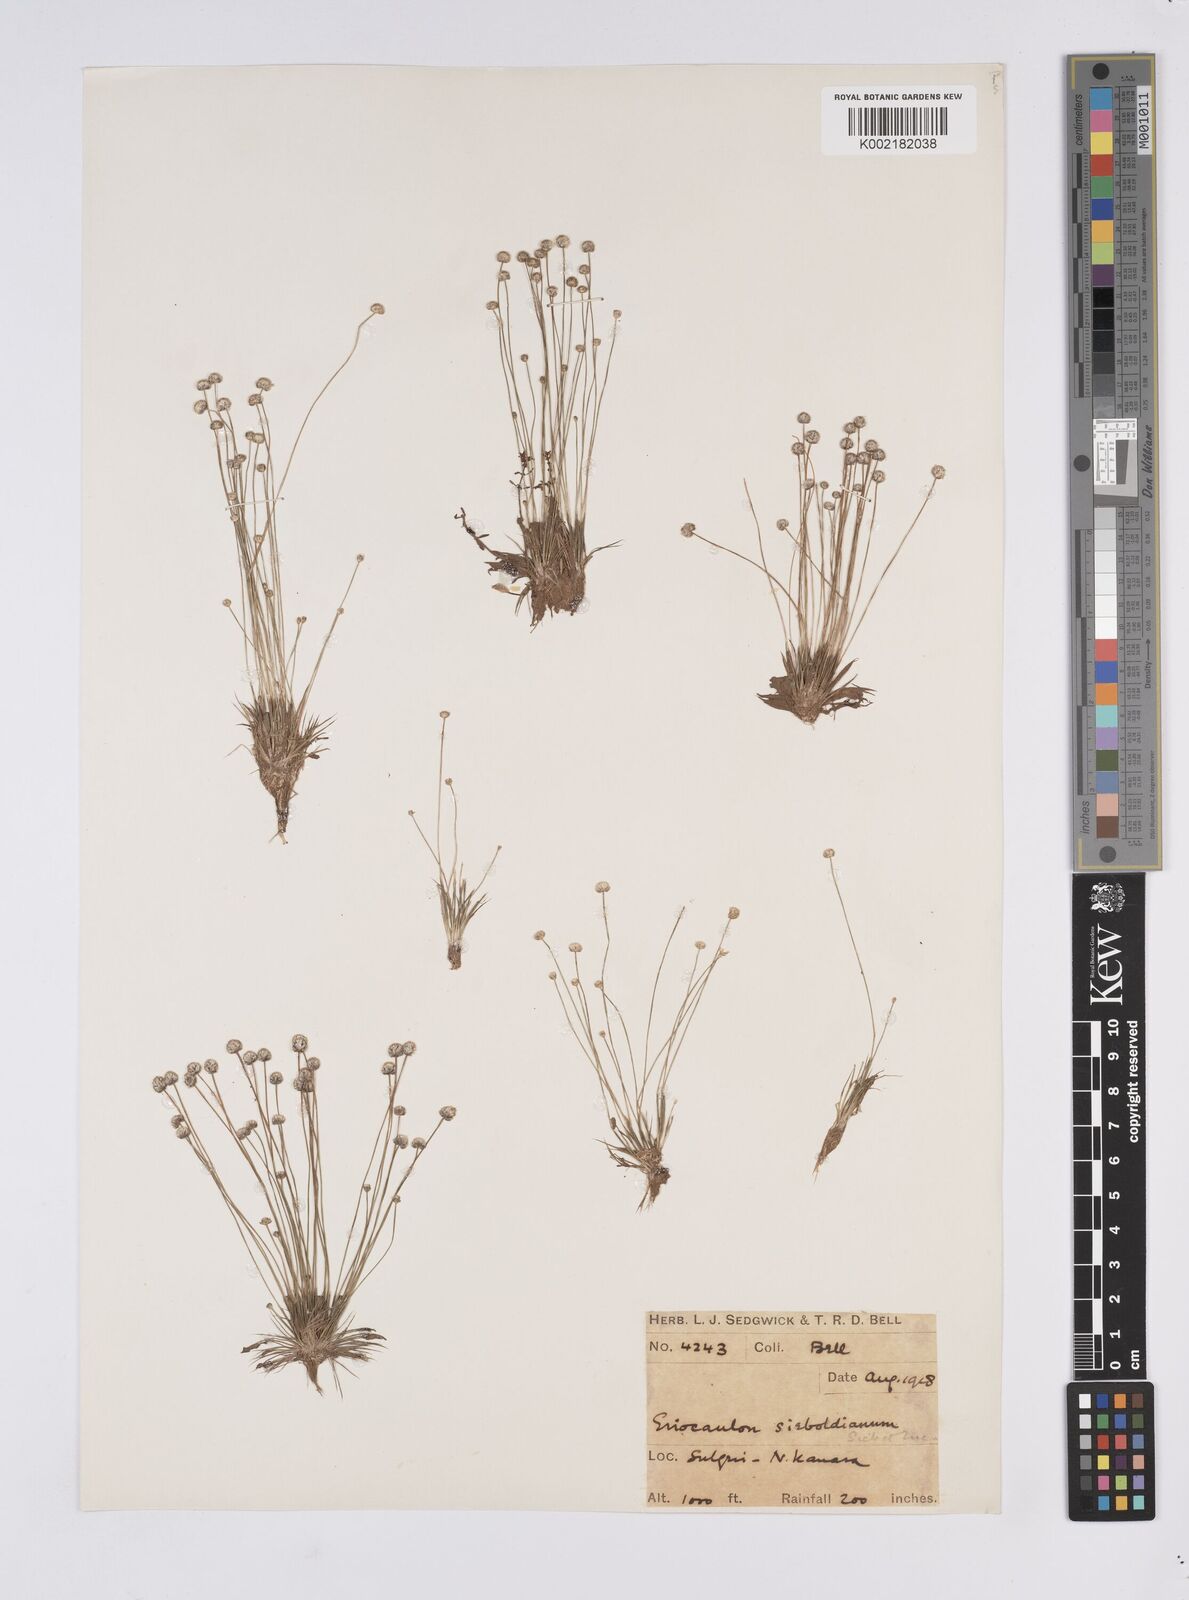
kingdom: Plantae
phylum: Tracheophyta
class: Liliopsida
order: Poales
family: Eriocaulaceae
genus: Eriocaulon
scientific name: Eriocaulon cinereum
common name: Ashy pipewort
